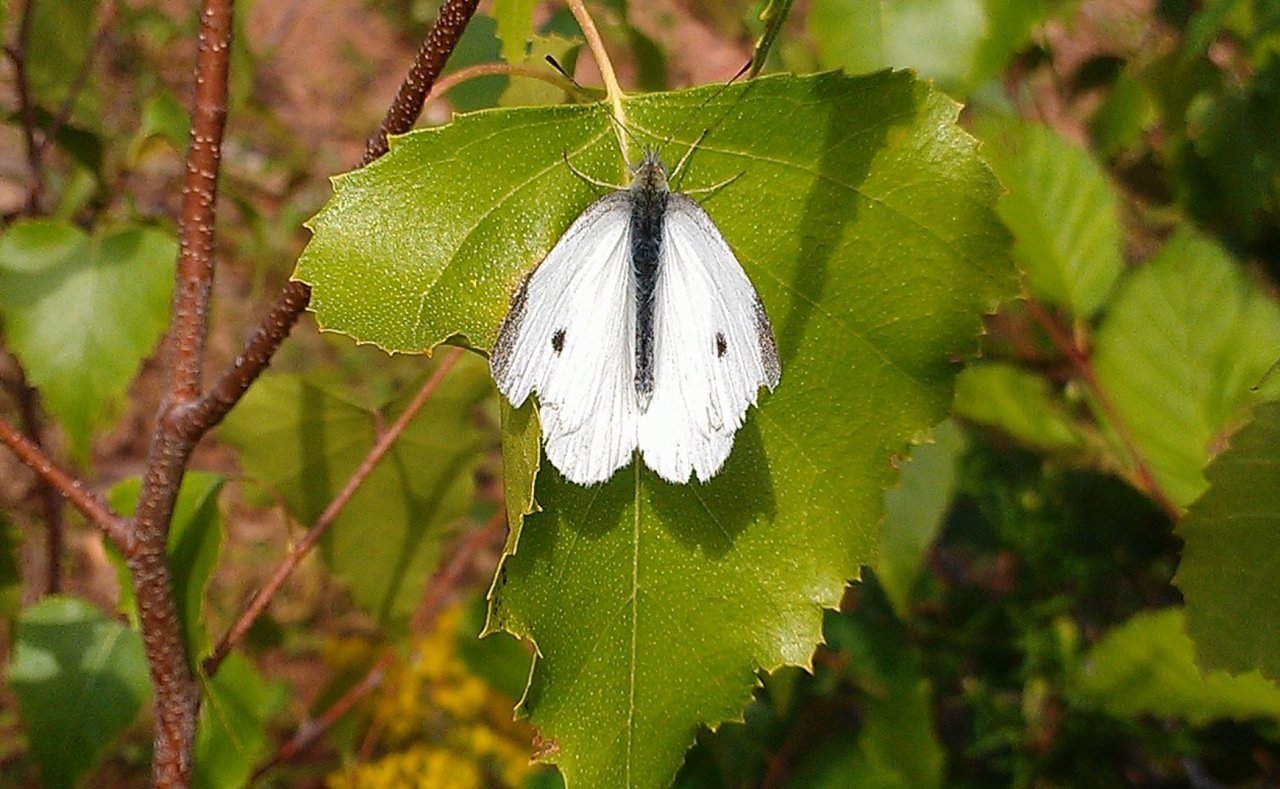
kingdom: Animalia
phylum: Arthropoda
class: Insecta
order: Lepidoptera
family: Pieridae
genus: Pieris
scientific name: Pieris rapae
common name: Cabbage White
